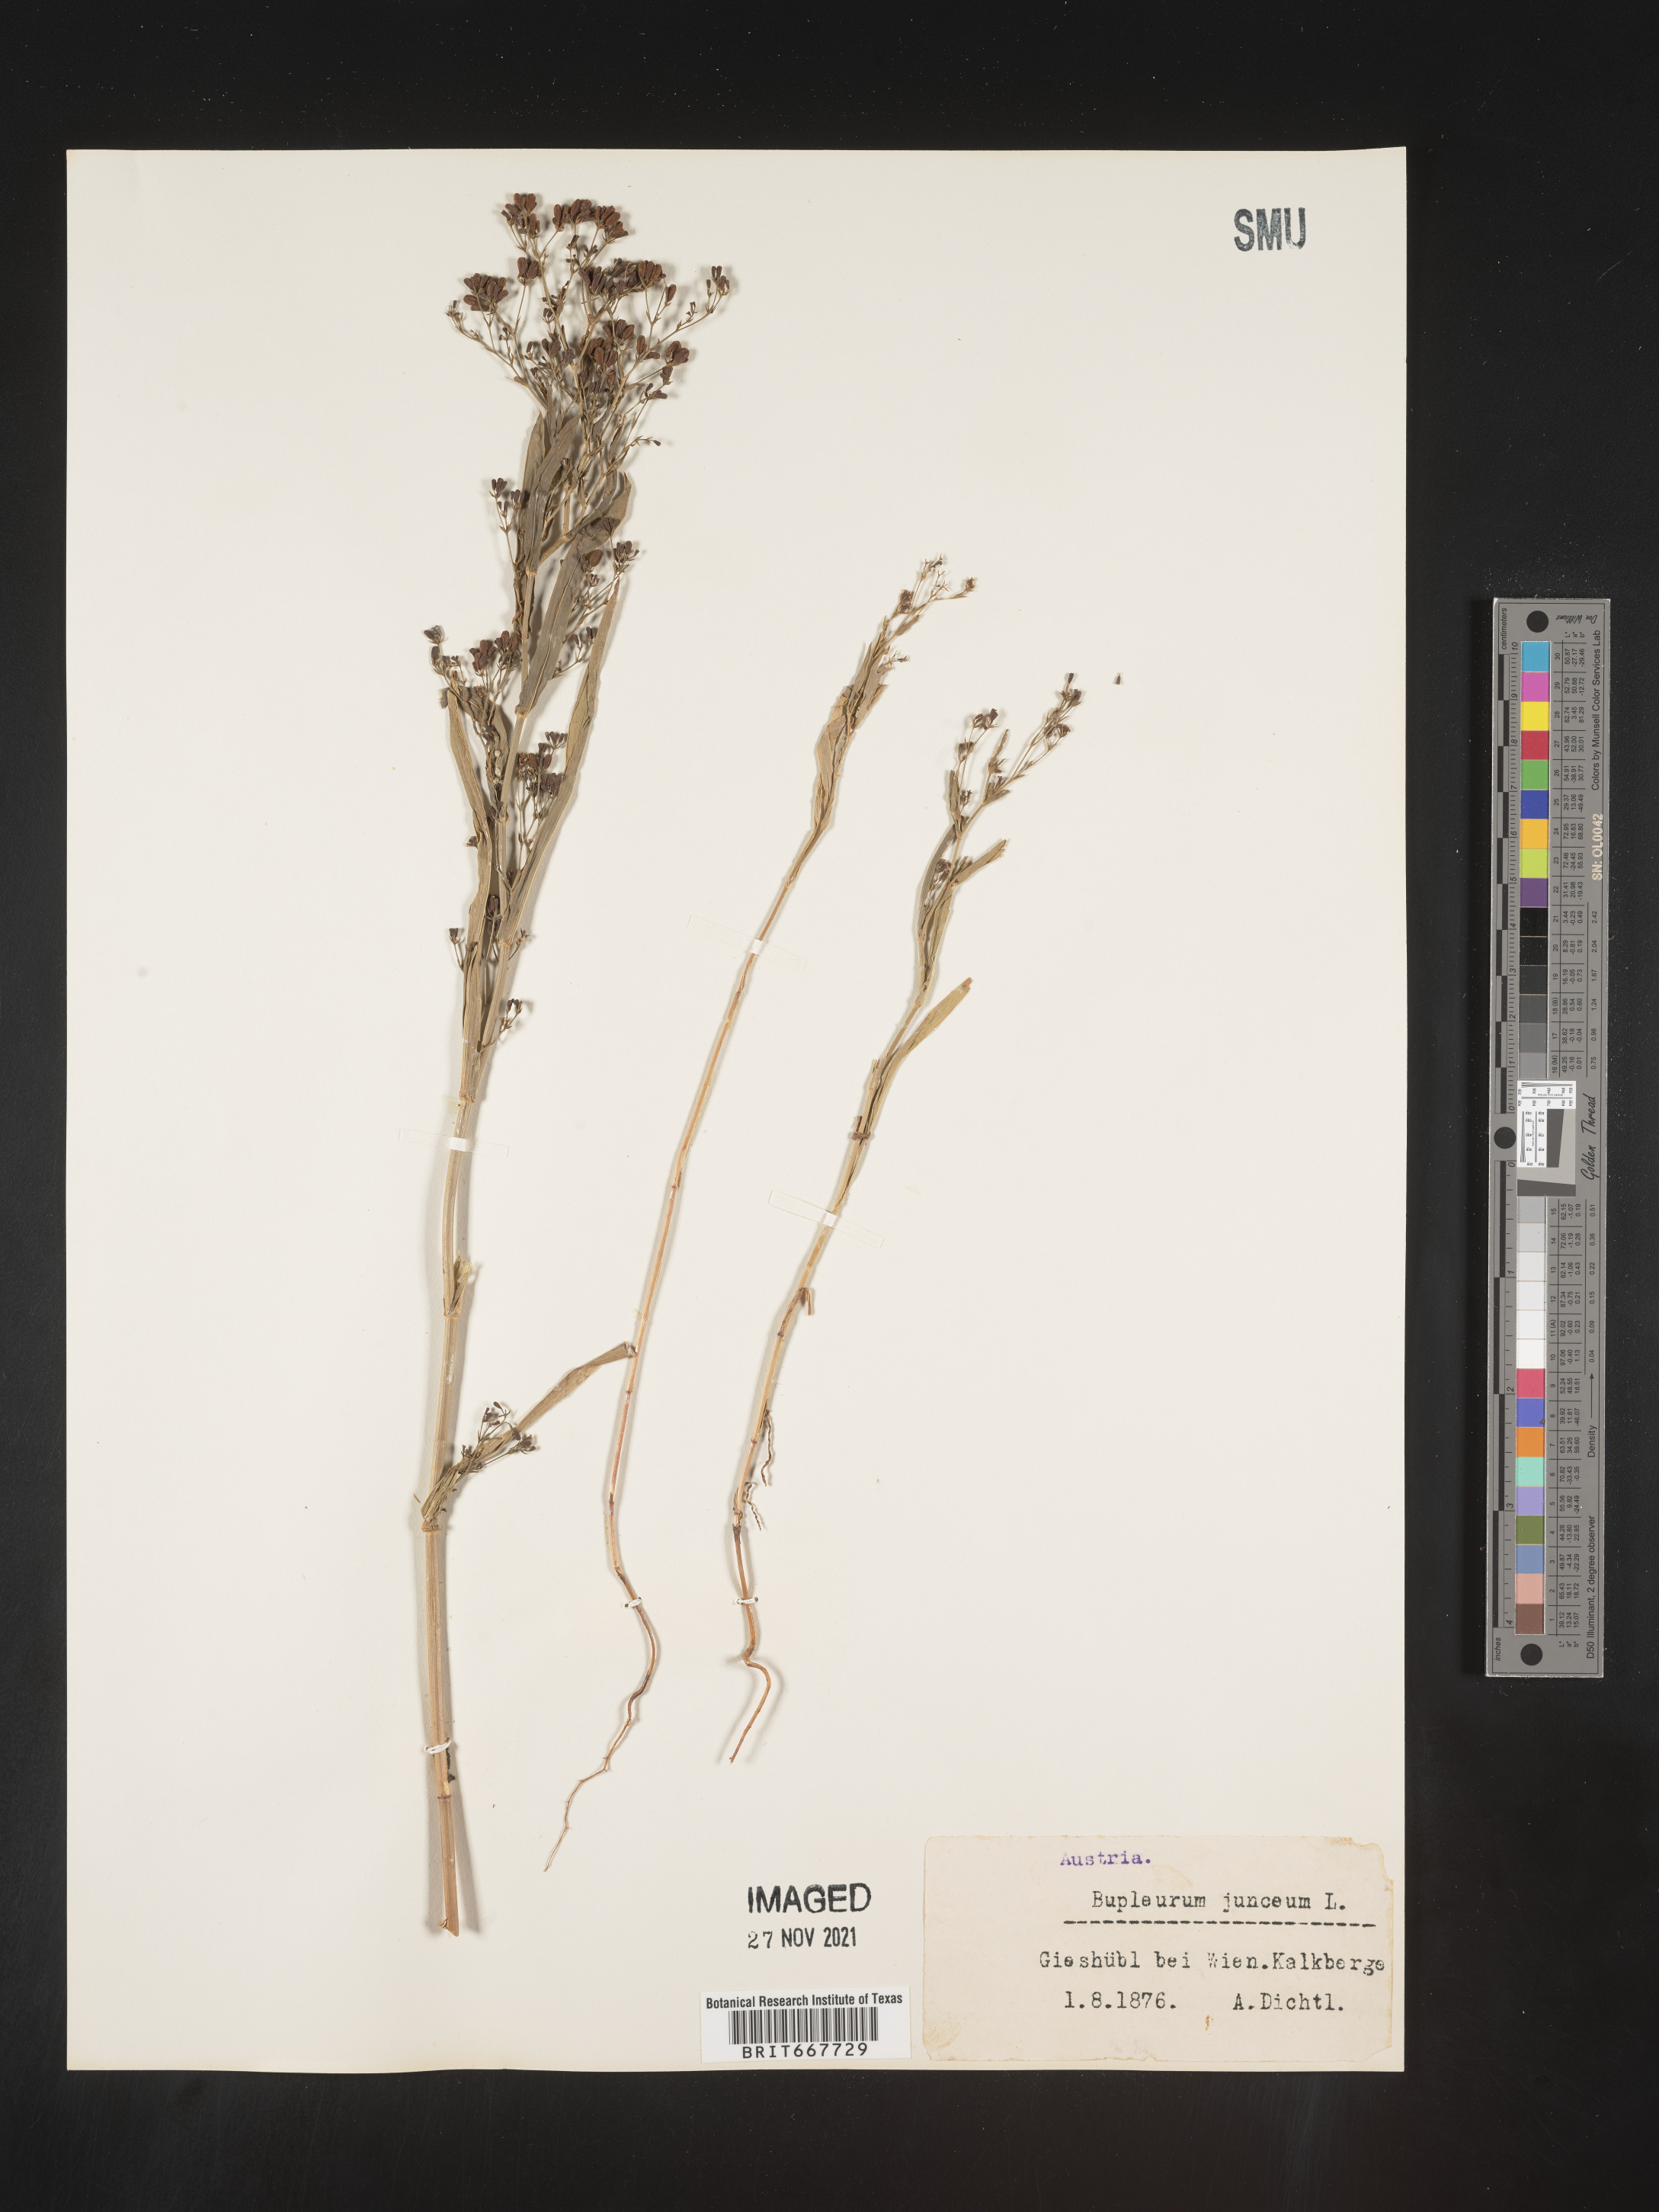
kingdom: Plantae
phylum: Tracheophyta
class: Magnoliopsida
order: Apiales
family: Apiaceae
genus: Bupleurum
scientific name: Bupleurum
